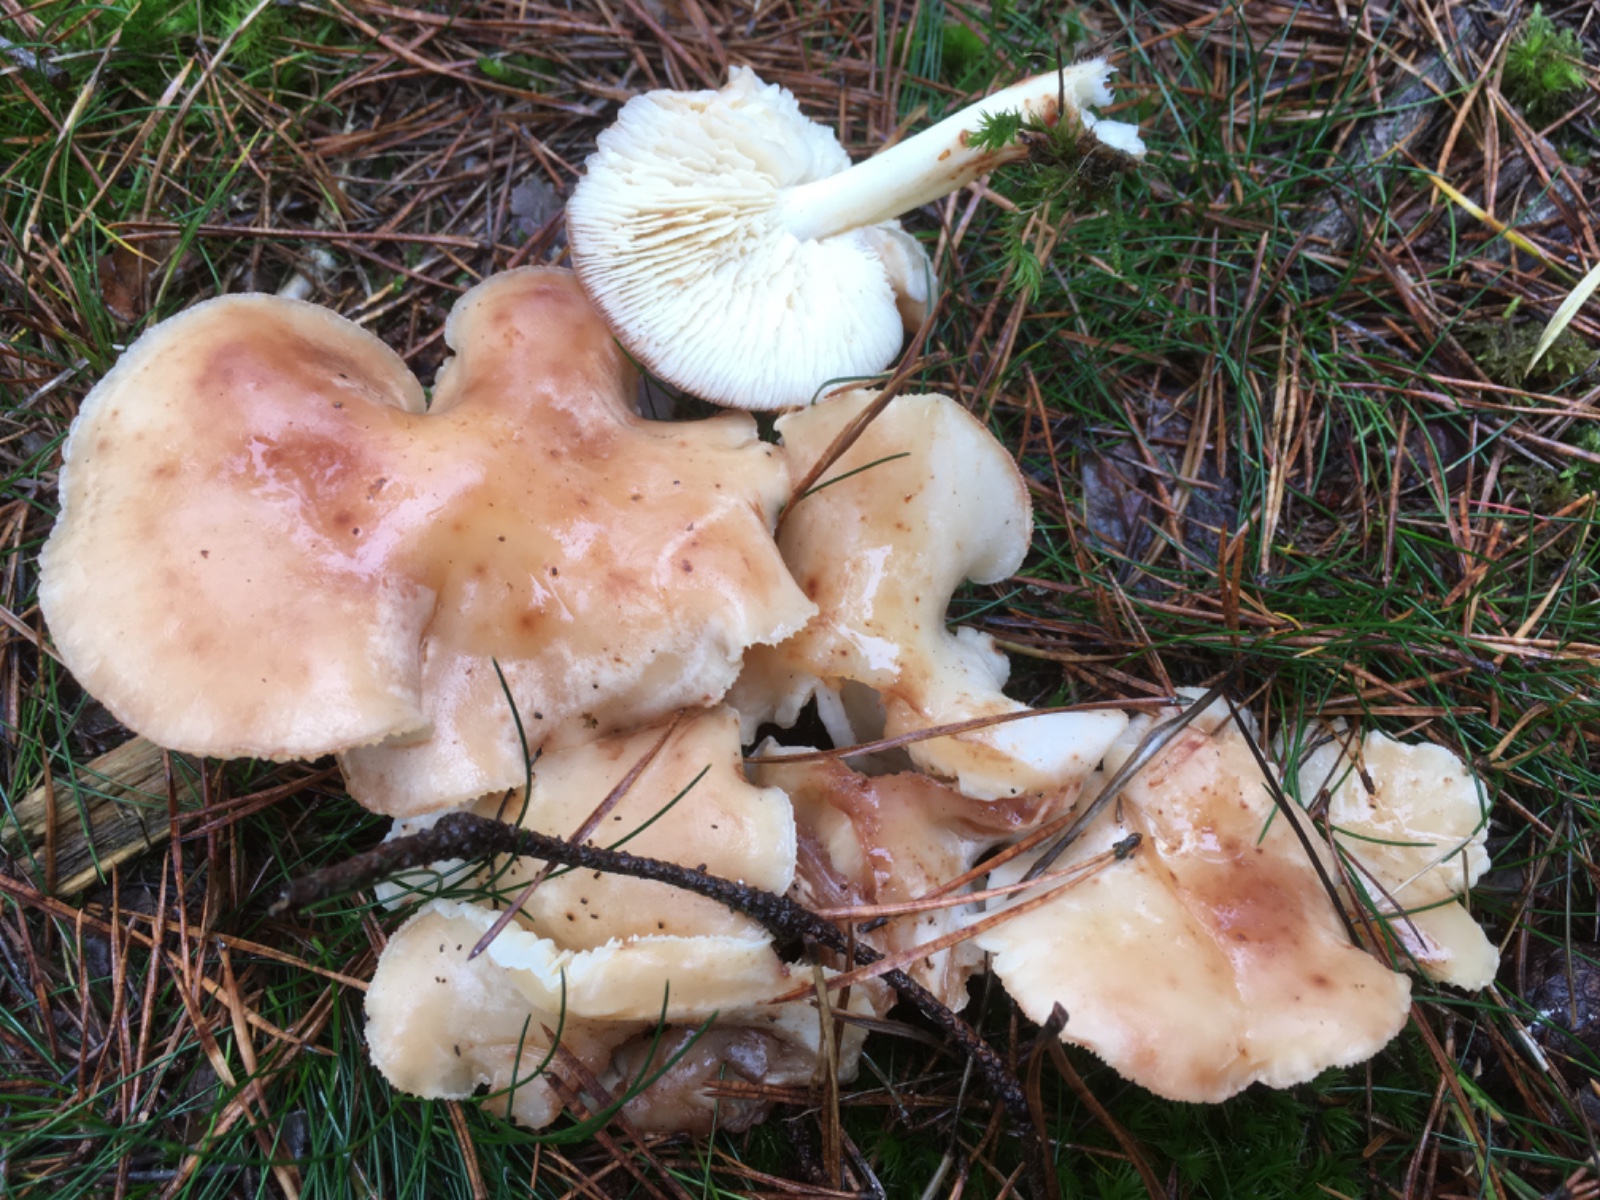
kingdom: Fungi
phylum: Basidiomycota
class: Agaricomycetes
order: Agaricales
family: Omphalotaceae
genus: Rhodocollybia
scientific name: Rhodocollybia maculata
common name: plettet fladhat
